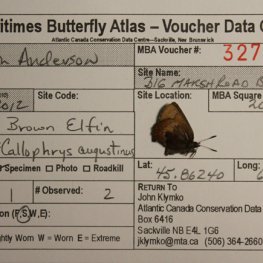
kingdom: Animalia
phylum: Arthropoda
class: Insecta
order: Lepidoptera
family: Lycaenidae
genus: Incisalia
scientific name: Incisalia irioides
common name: Brown Elfin
